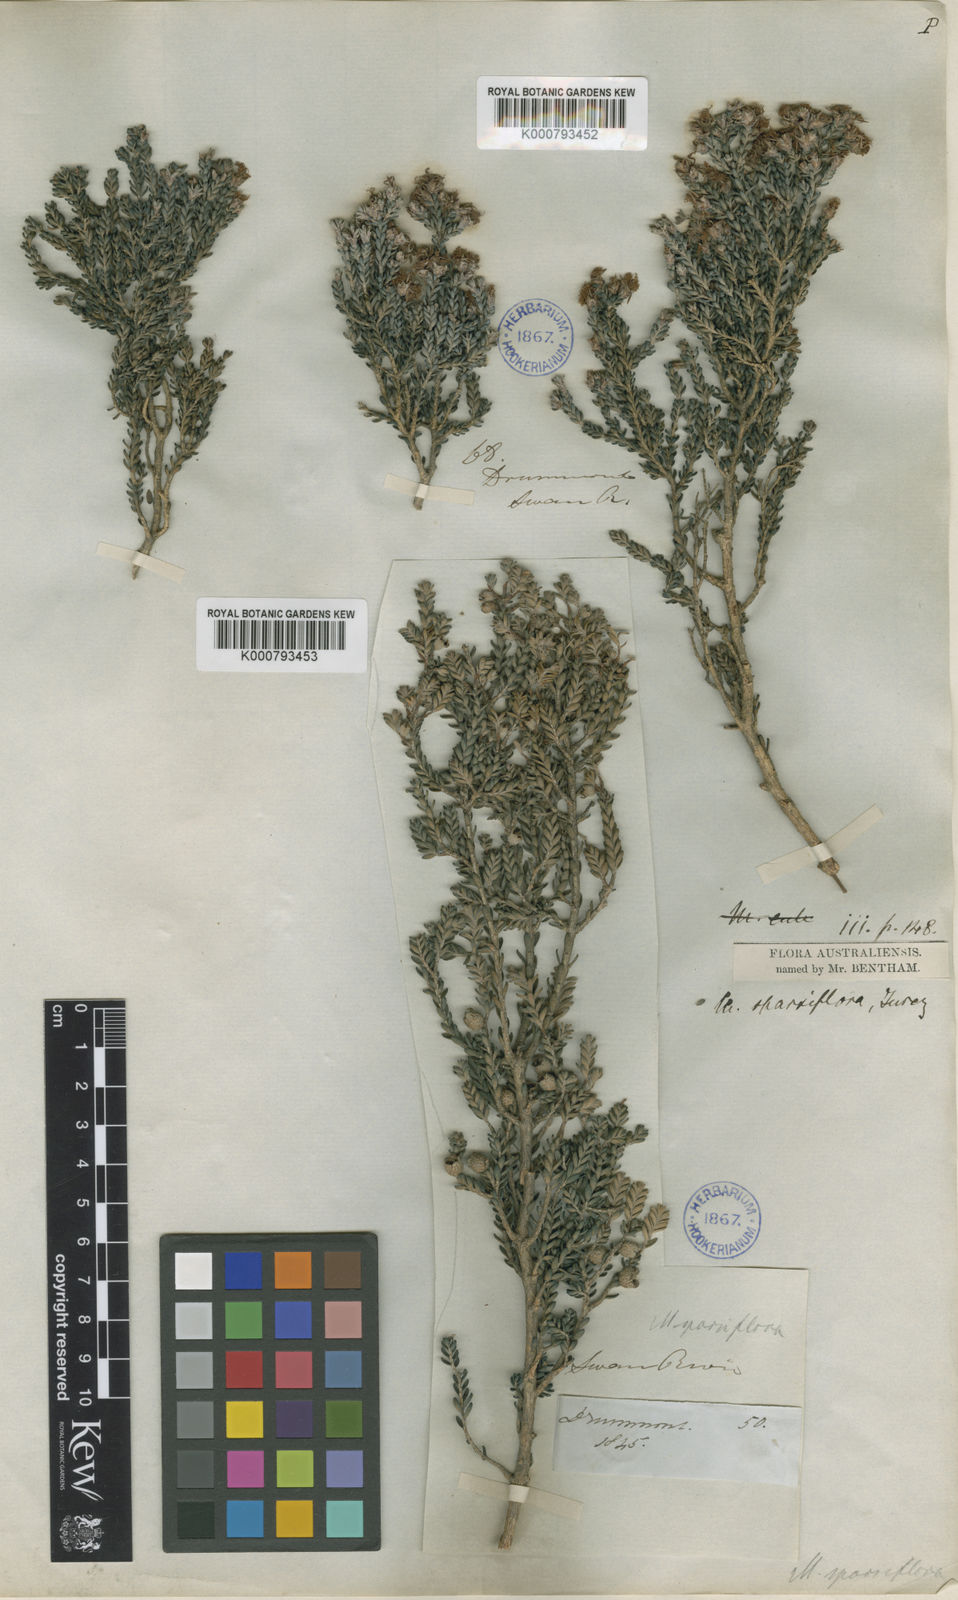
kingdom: Plantae
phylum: Tracheophyta
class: Magnoliopsida
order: Myrtales
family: Myrtaceae
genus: Melaleuca
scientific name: Melaleuca sparsiflora
